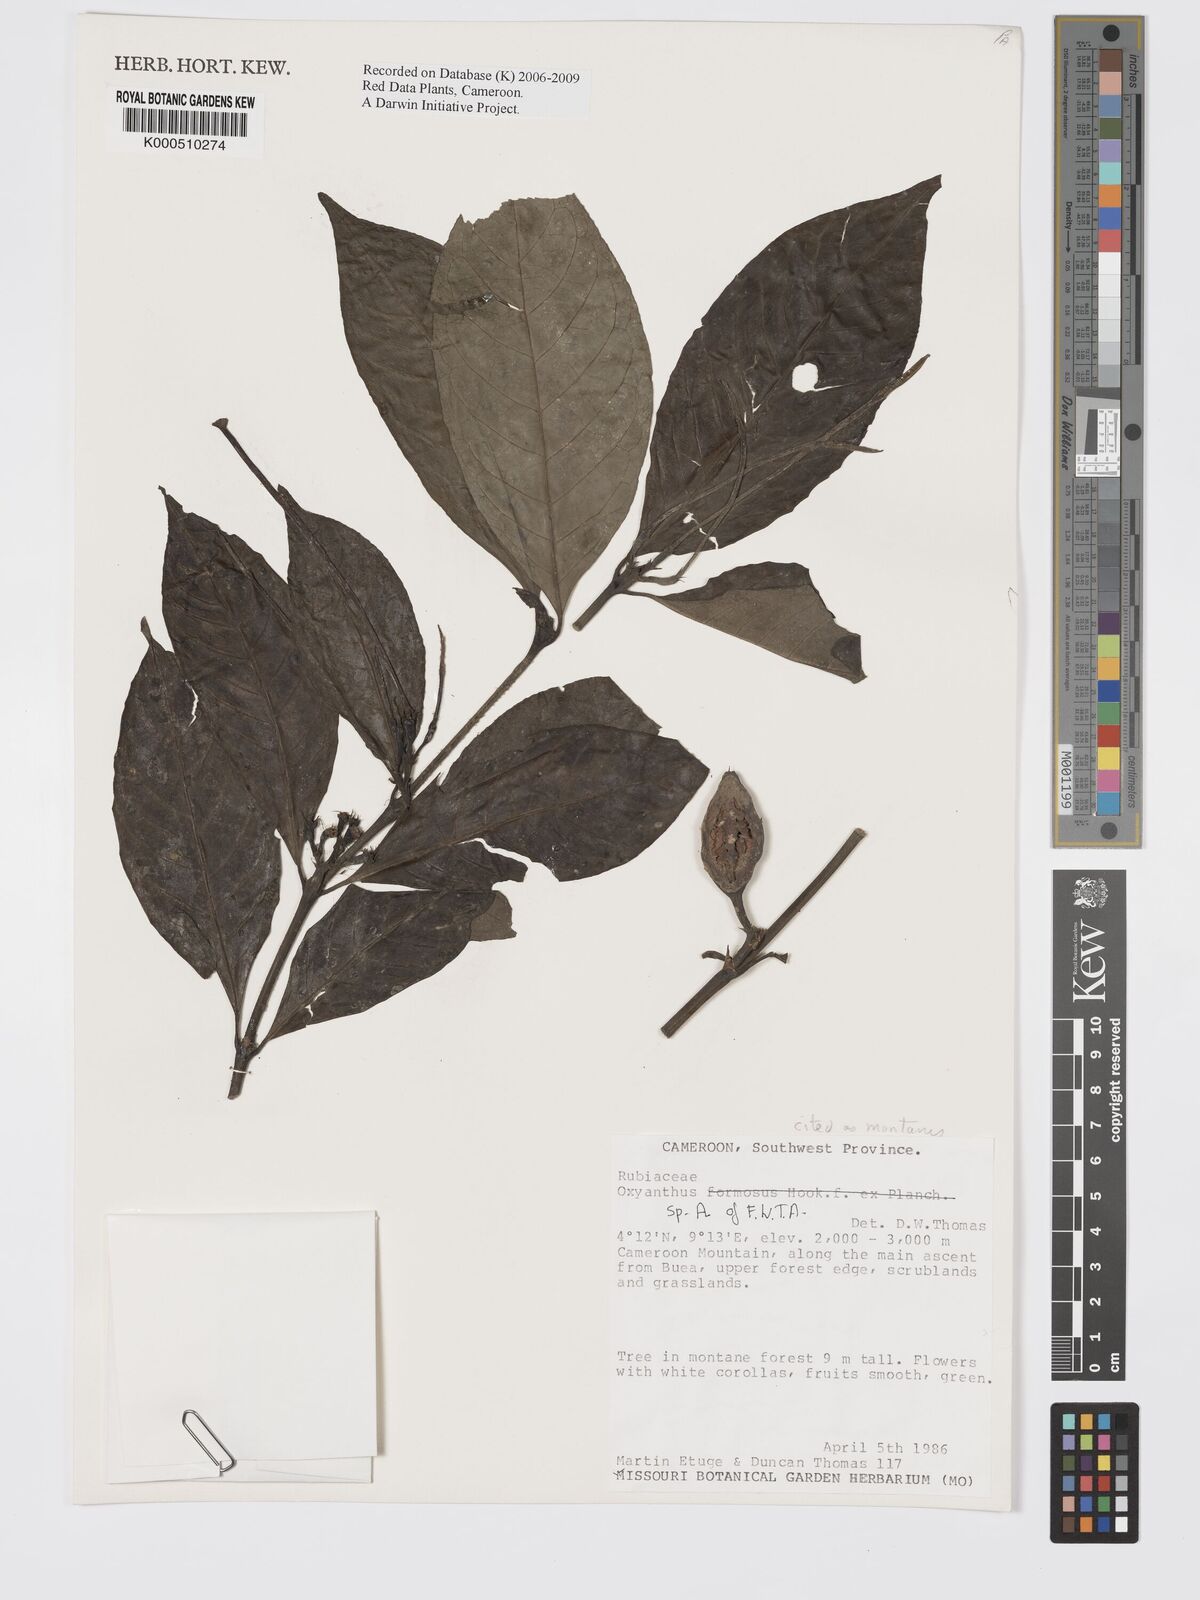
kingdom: Plantae
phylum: Tracheophyta
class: Magnoliopsida
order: Gentianales
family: Rubiaceae
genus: Oxyanthus
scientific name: Oxyanthus
